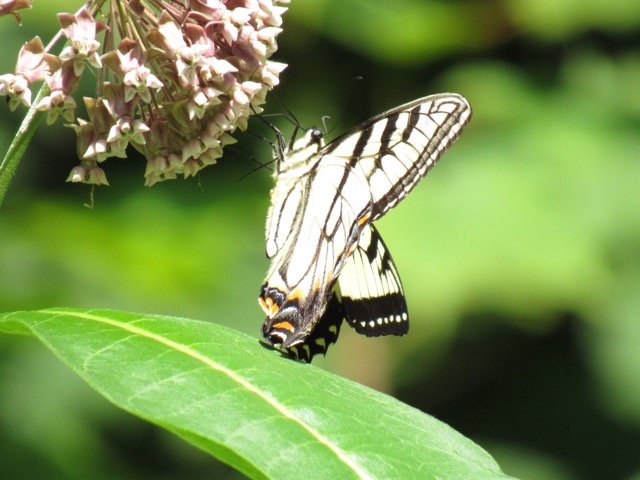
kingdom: Animalia
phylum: Arthropoda
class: Insecta
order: Lepidoptera
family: Papilionidae
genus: Pterourus
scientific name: Pterourus
